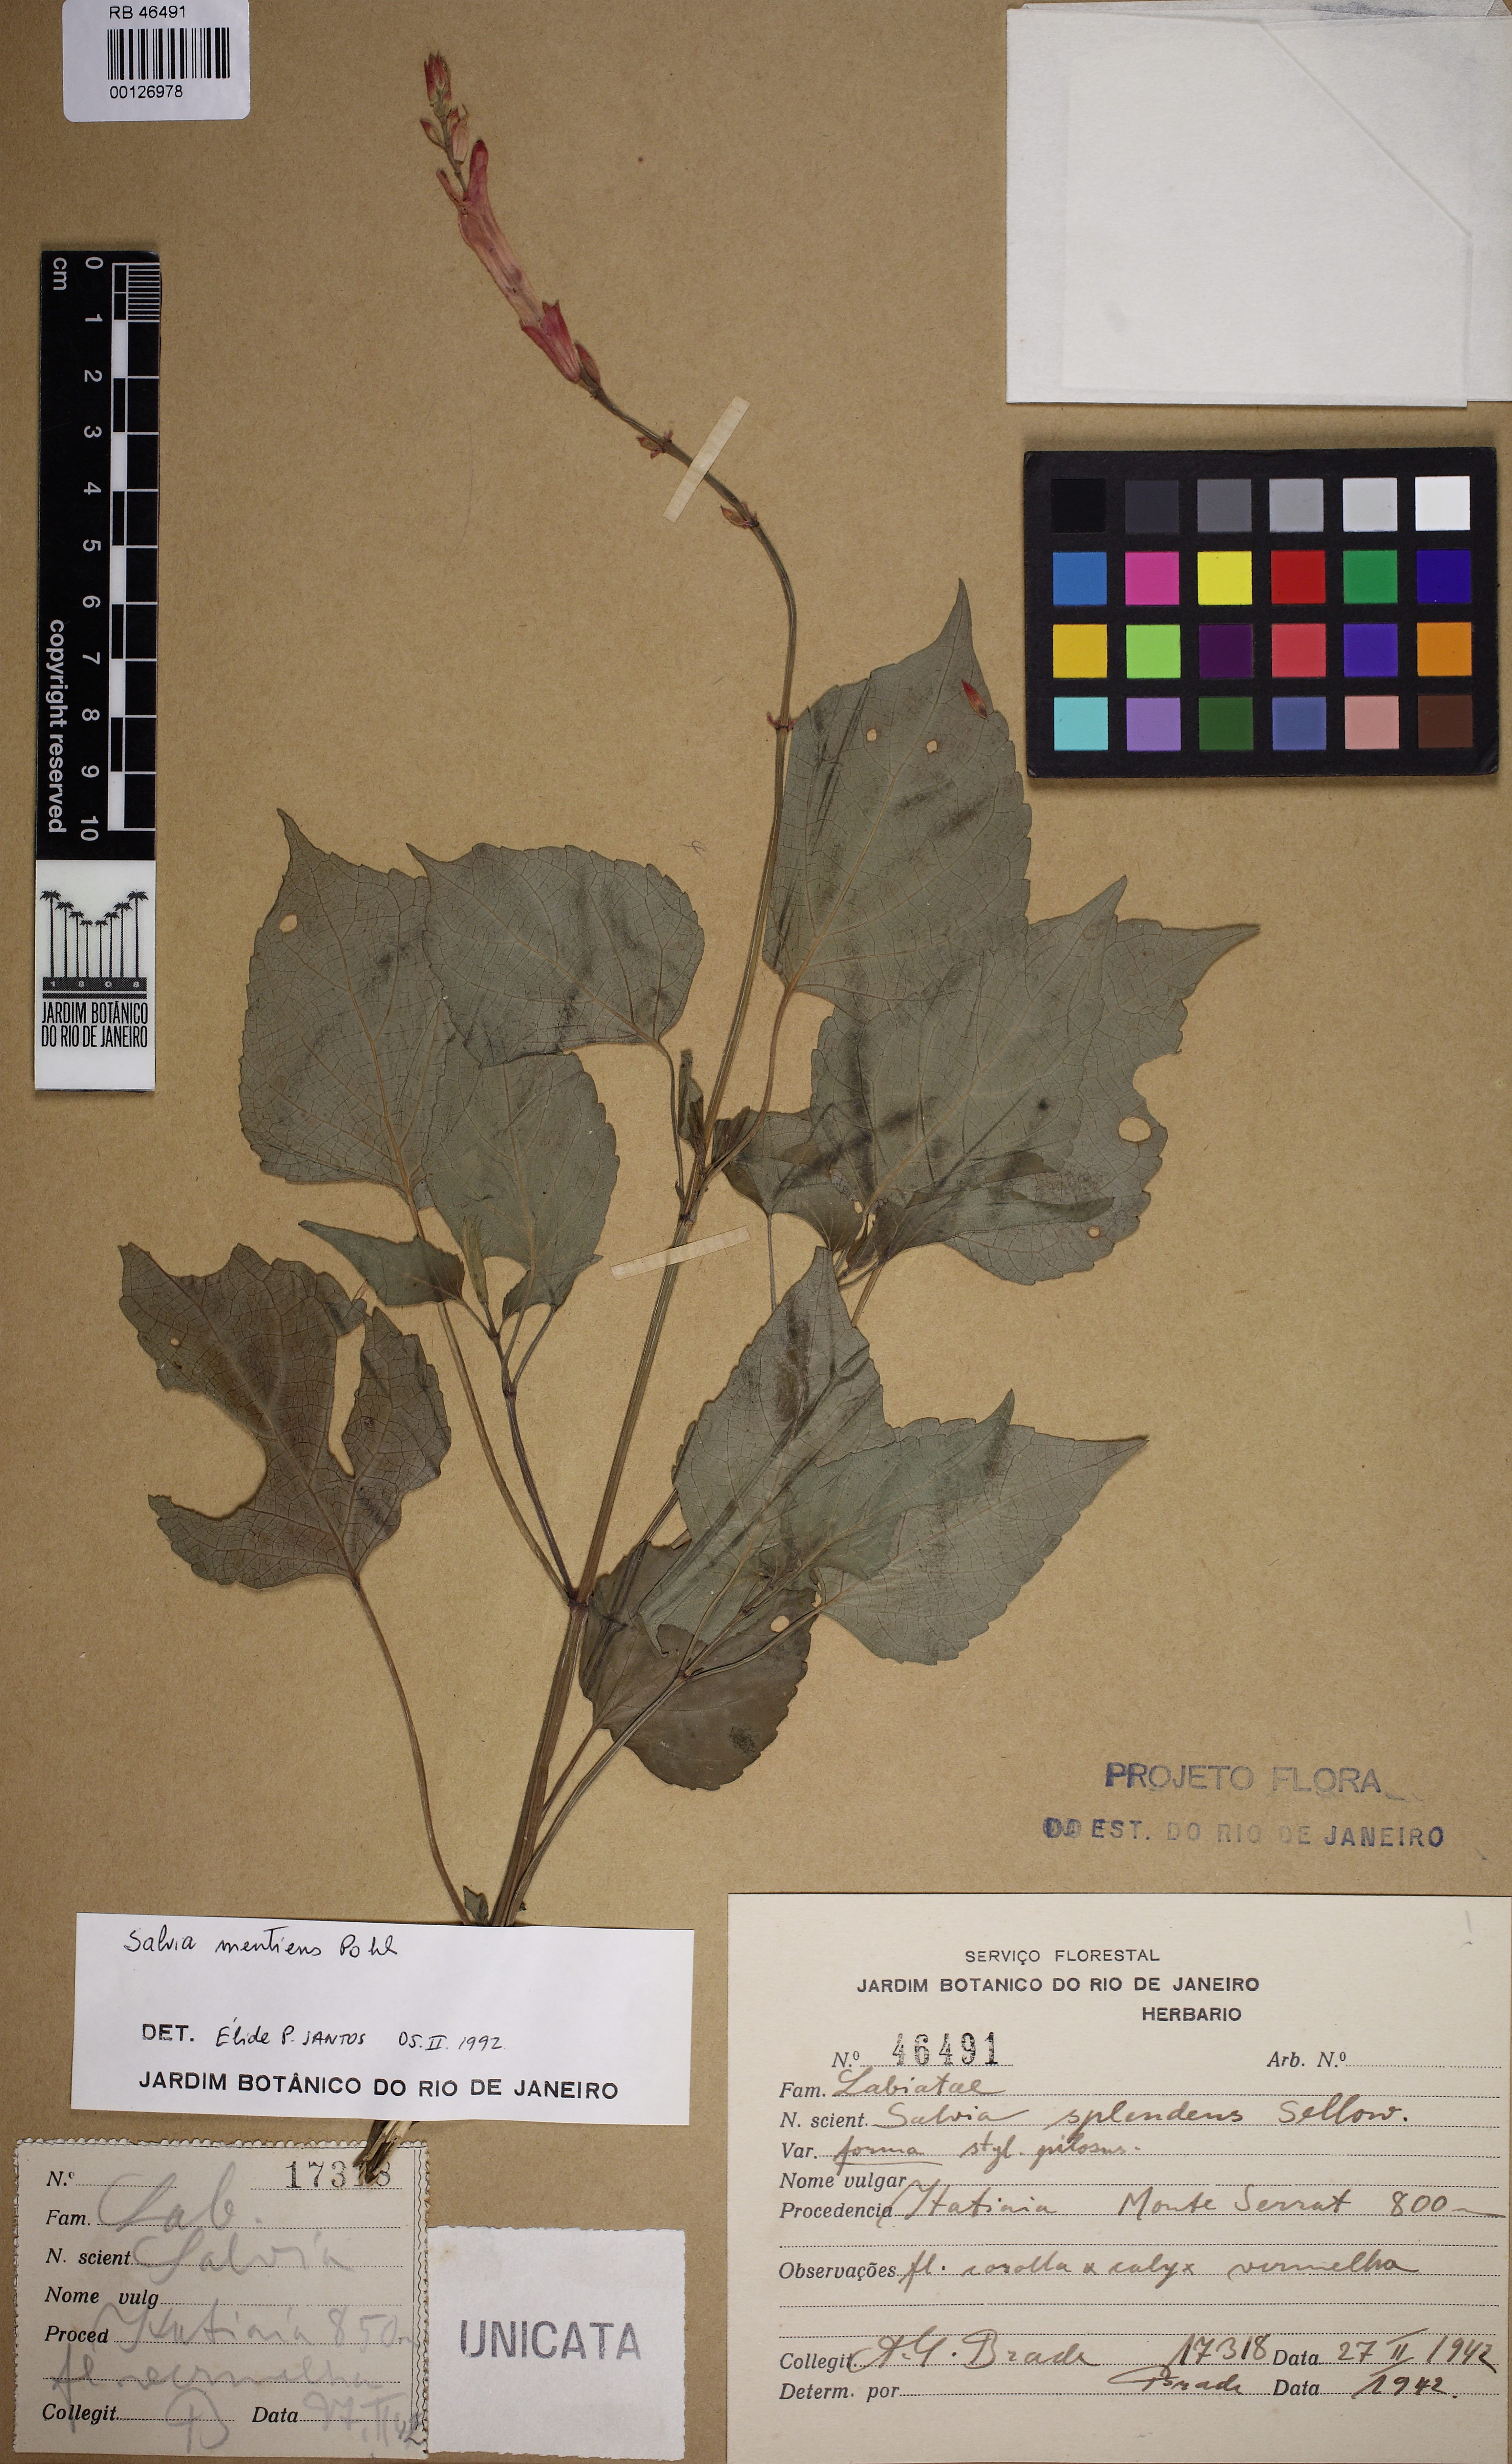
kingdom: Plantae
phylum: Tracheophyta
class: Magnoliopsida
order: Lamiales
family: Lamiaceae
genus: Salvia
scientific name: Salvia mentiens
